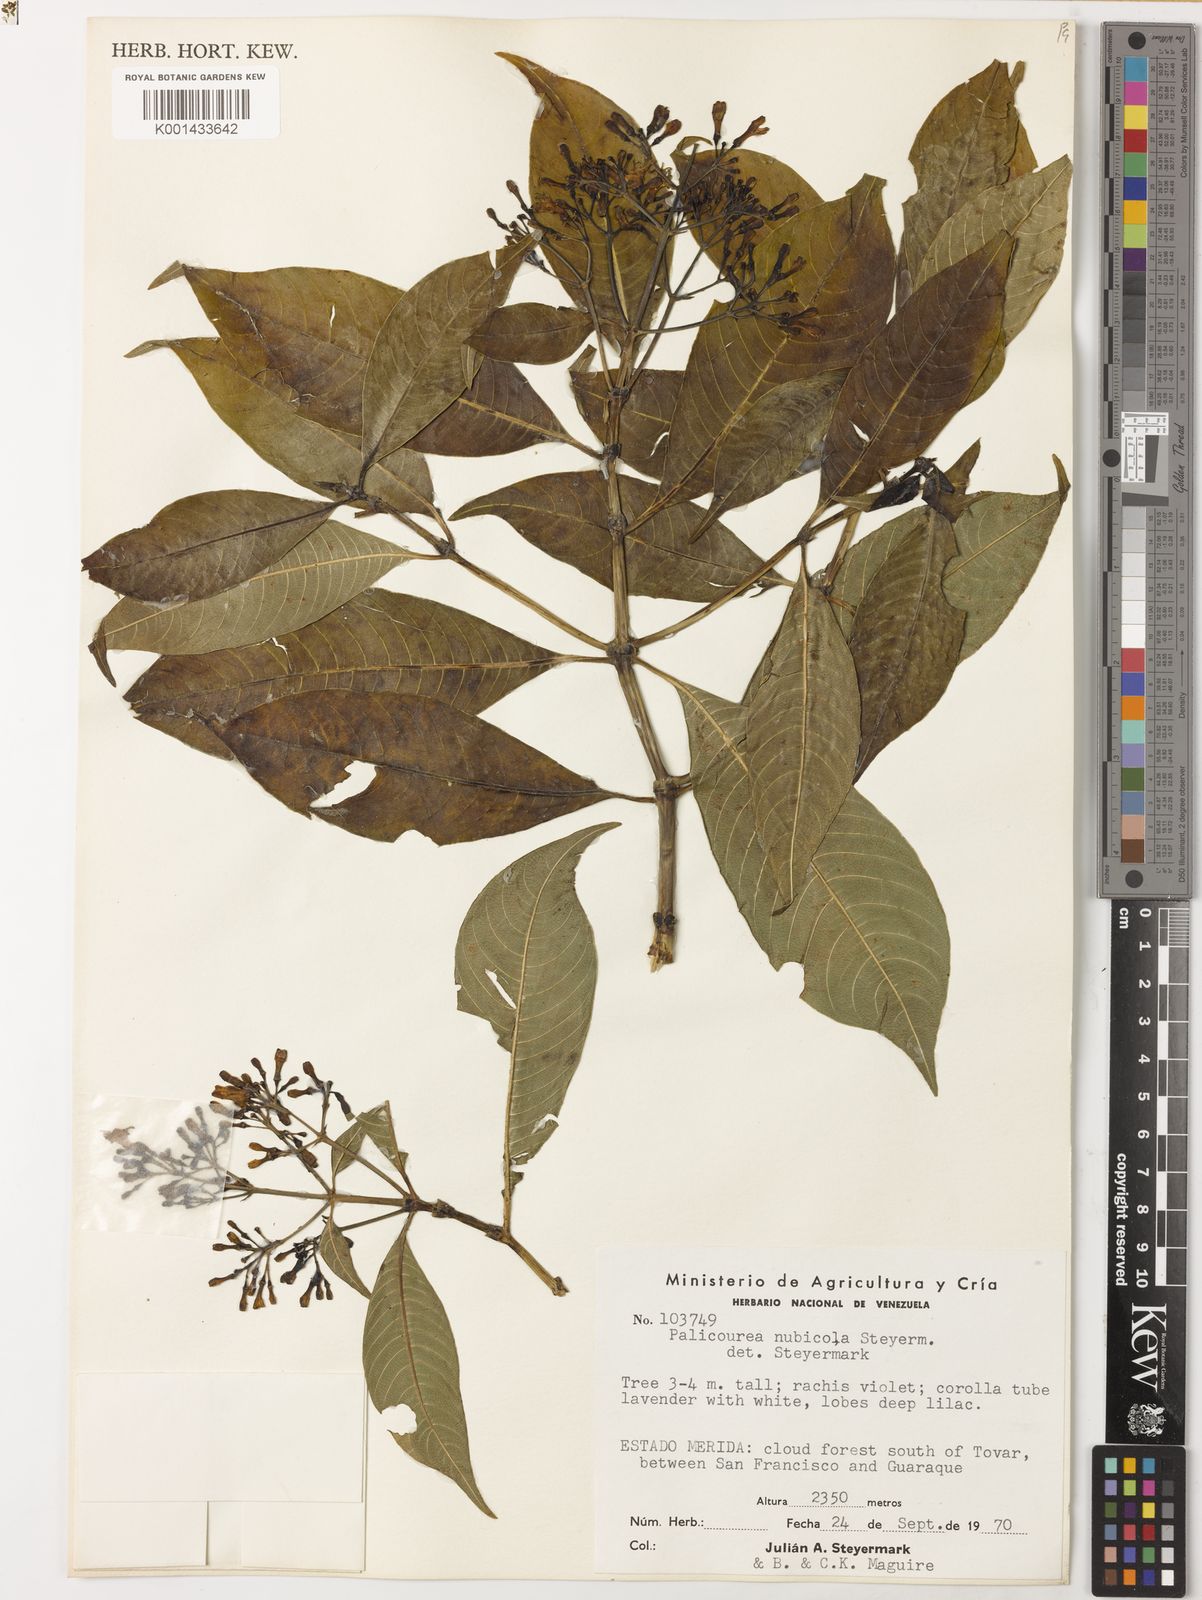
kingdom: Plantae
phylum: Tracheophyta
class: Magnoliopsida
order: Gentianales
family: Rubiaceae
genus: Palicourea
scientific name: Palicourea apicata
